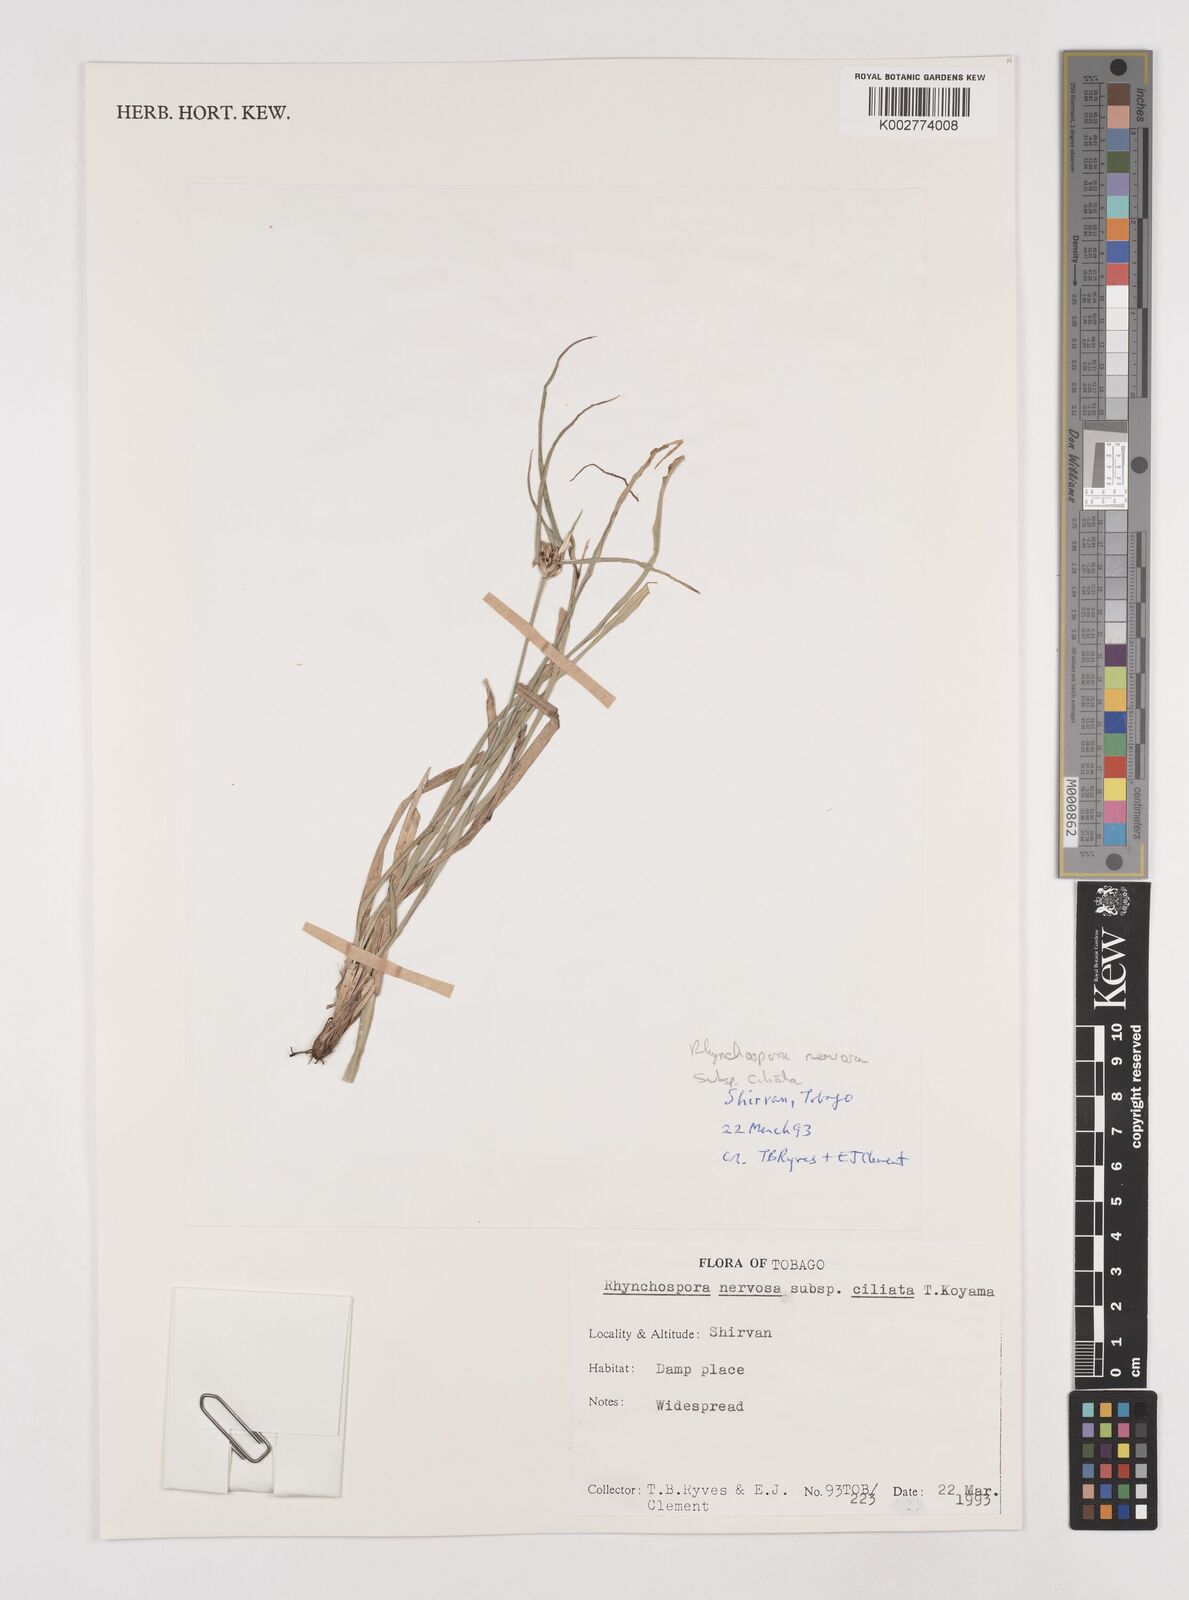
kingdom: Plantae
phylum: Tracheophyta
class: Liliopsida
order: Poales
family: Cyperaceae
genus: Rhynchospora
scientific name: Rhynchospora pura
